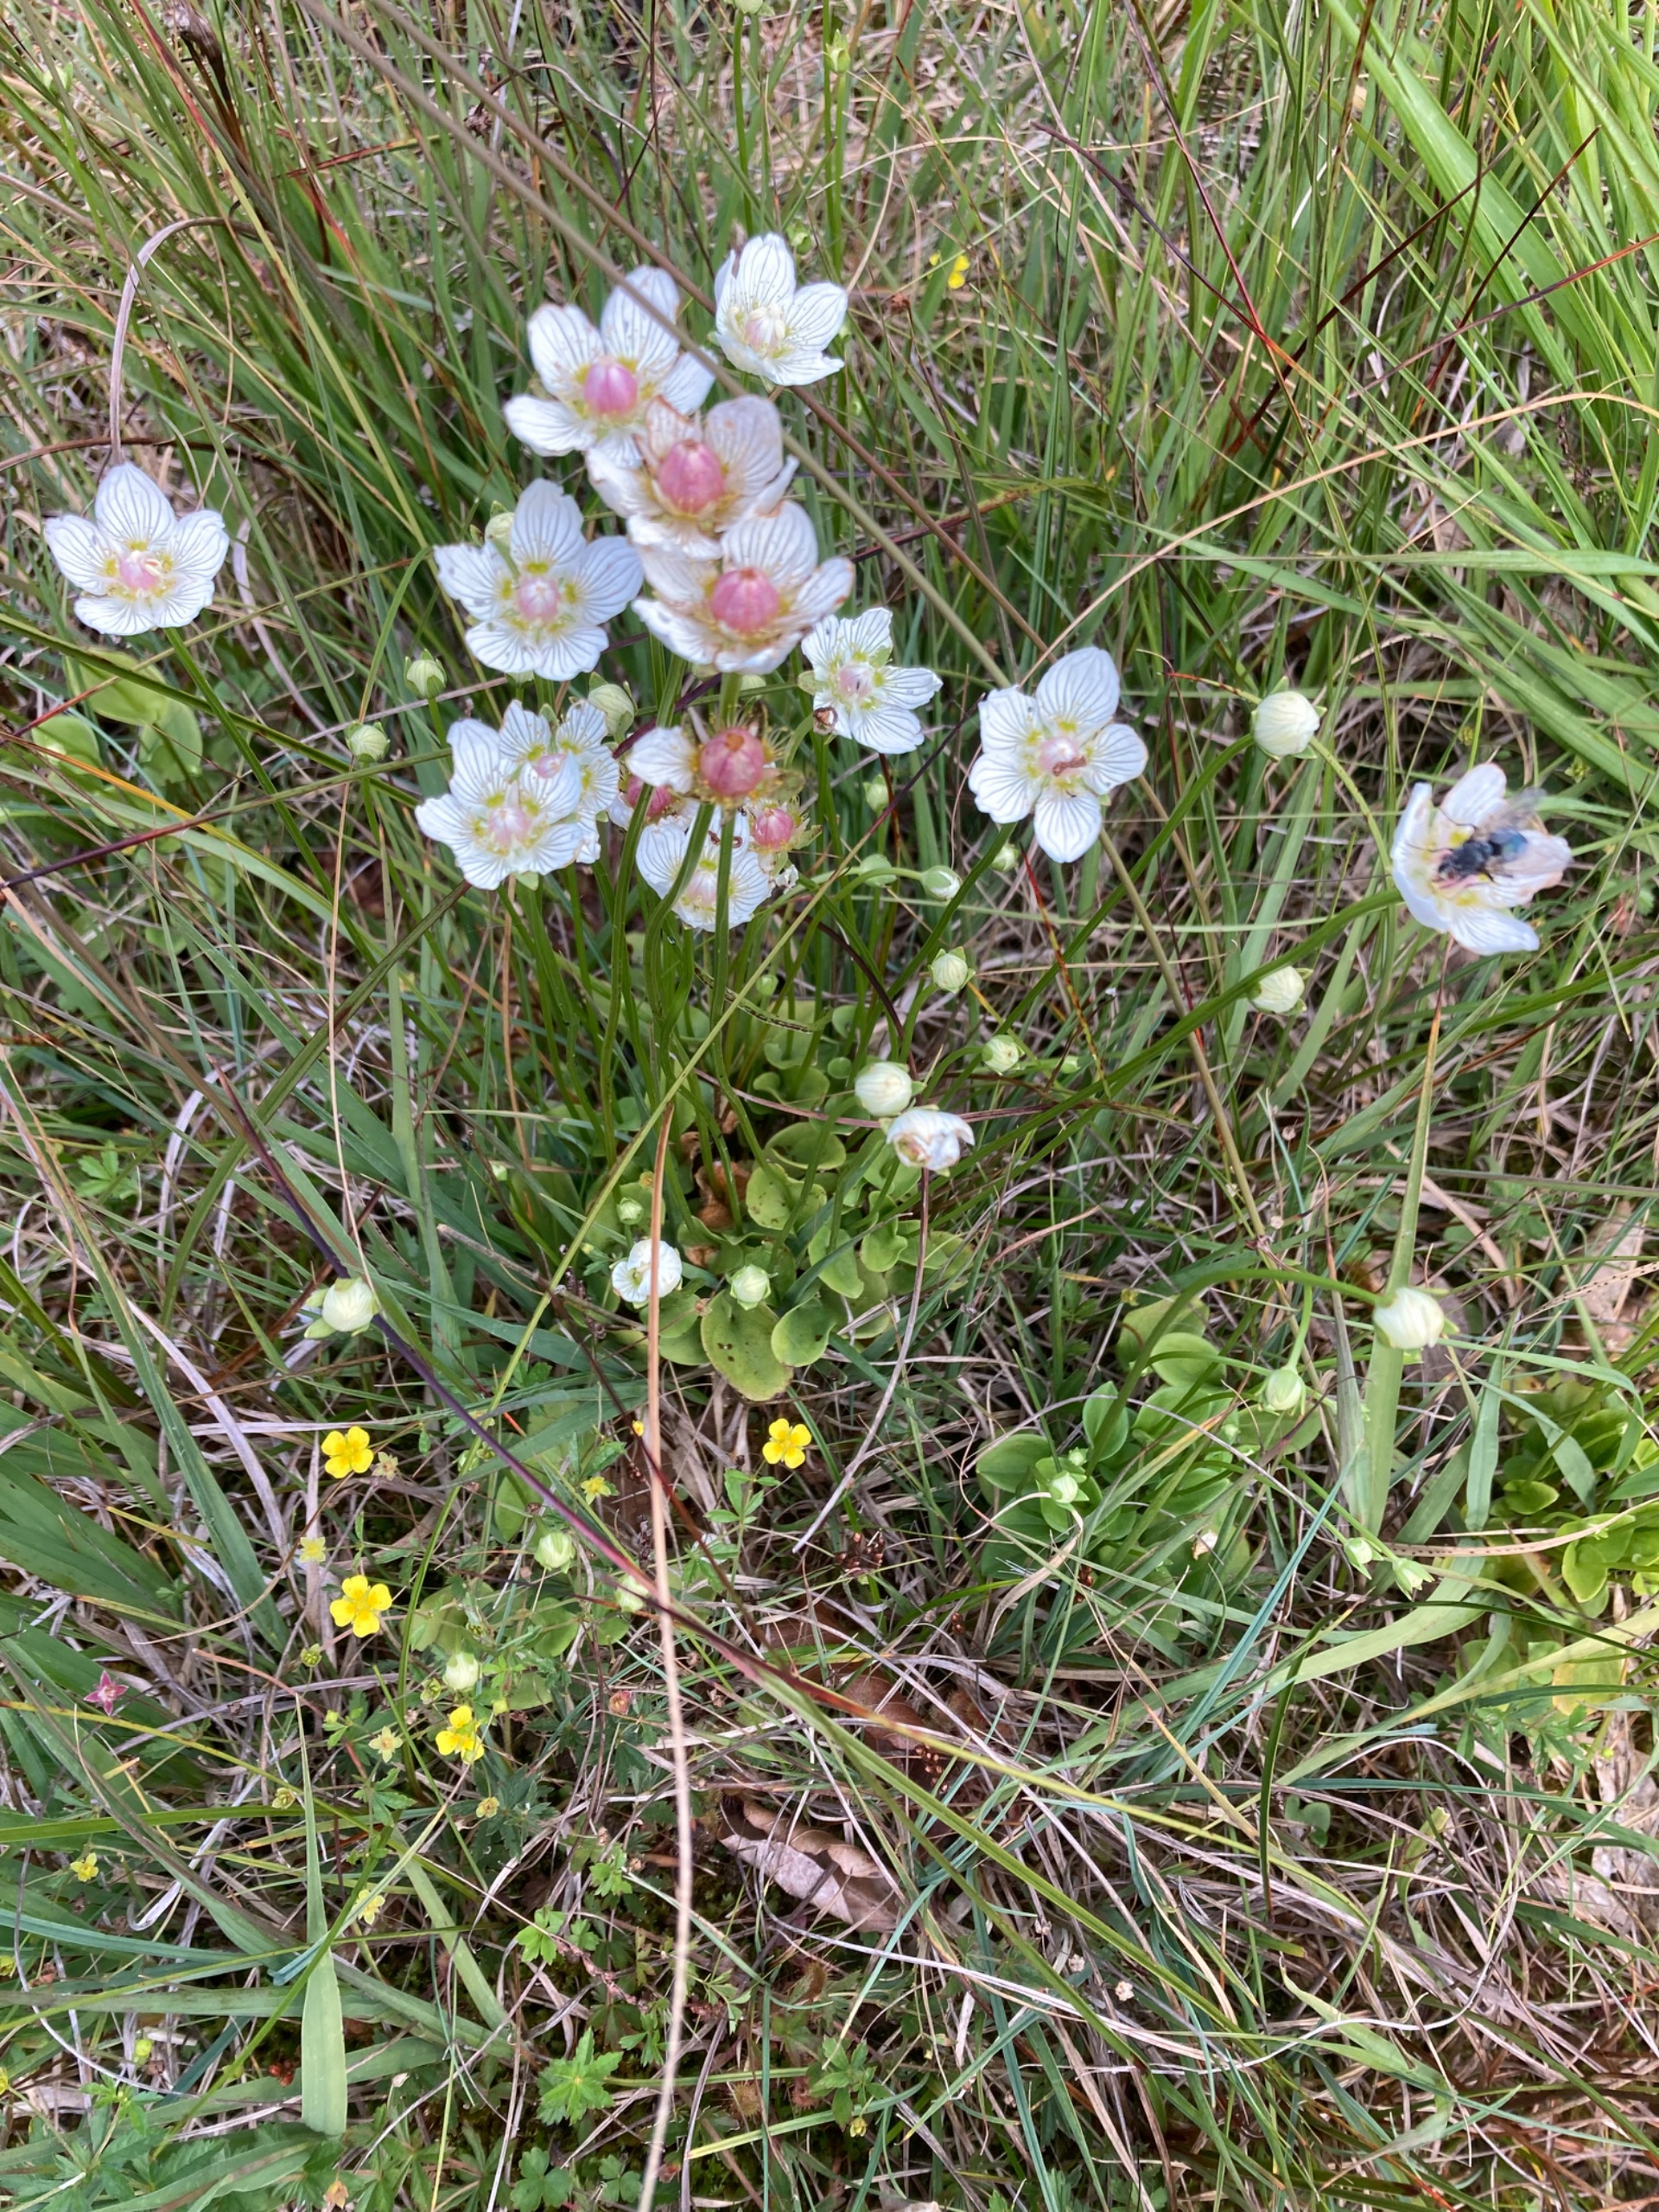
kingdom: Plantae
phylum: Tracheophyta
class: Magnoliopsida
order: Celastrales
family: Parnassiaceae
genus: Parnassia
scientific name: Parnassia palustris
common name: Leverurt
